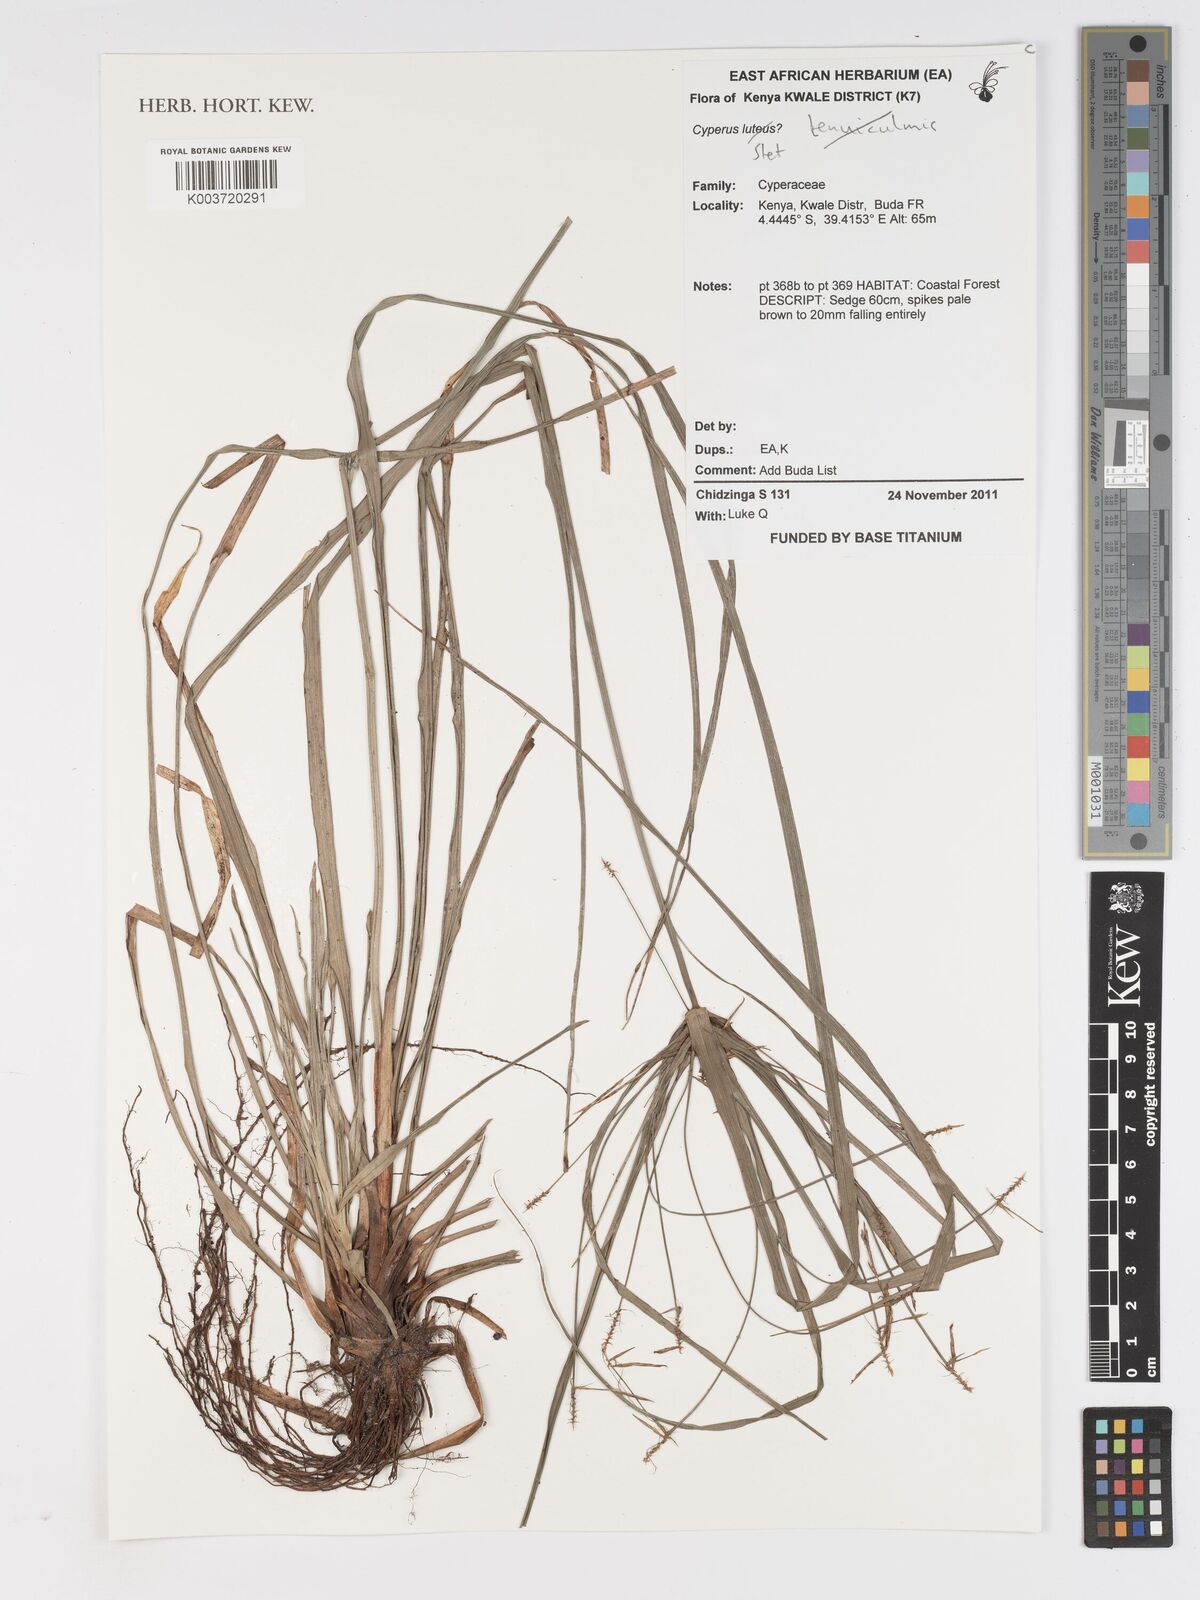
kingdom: Plantae
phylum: Tracheophyta
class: Liliopsida
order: Poales
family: Cyperaceae
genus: Cyperus
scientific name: Cyperus
